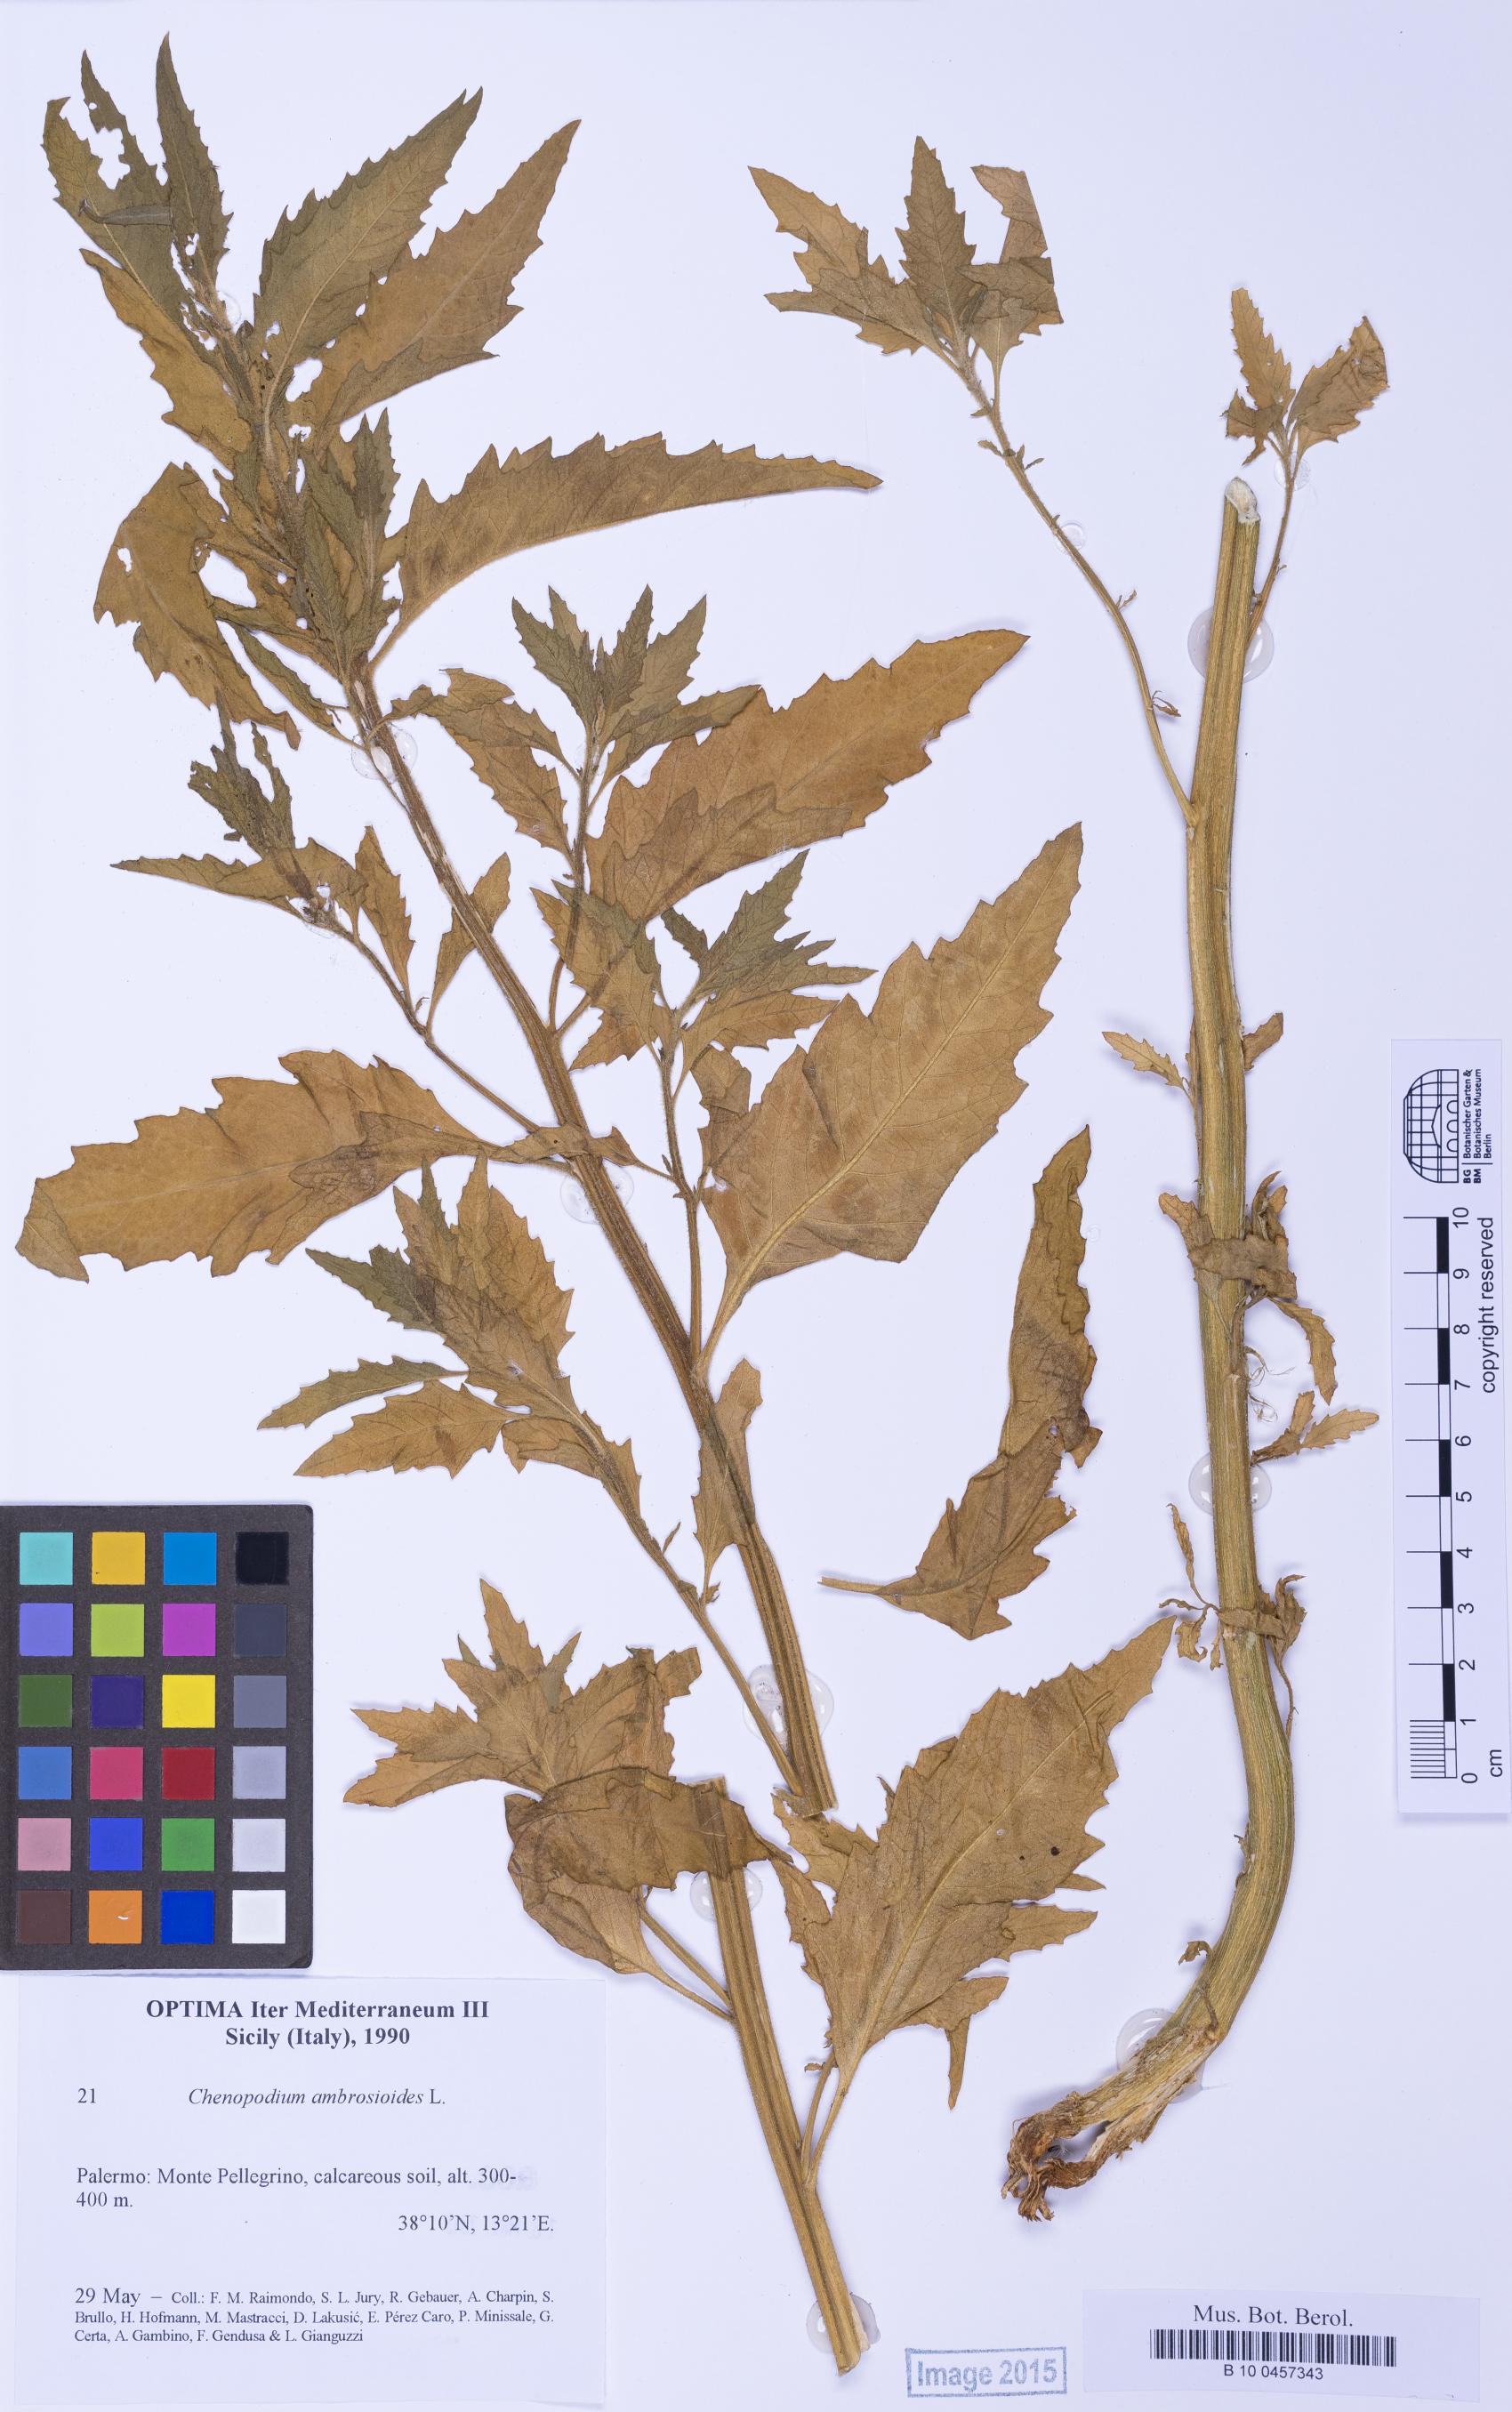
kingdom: Plantae
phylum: Tracheophyta
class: Magnoliopsida
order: Caryophyllales
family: Amaranthaceae
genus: Dysphania
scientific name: Dysphania ambrosioides
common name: Wormseed
